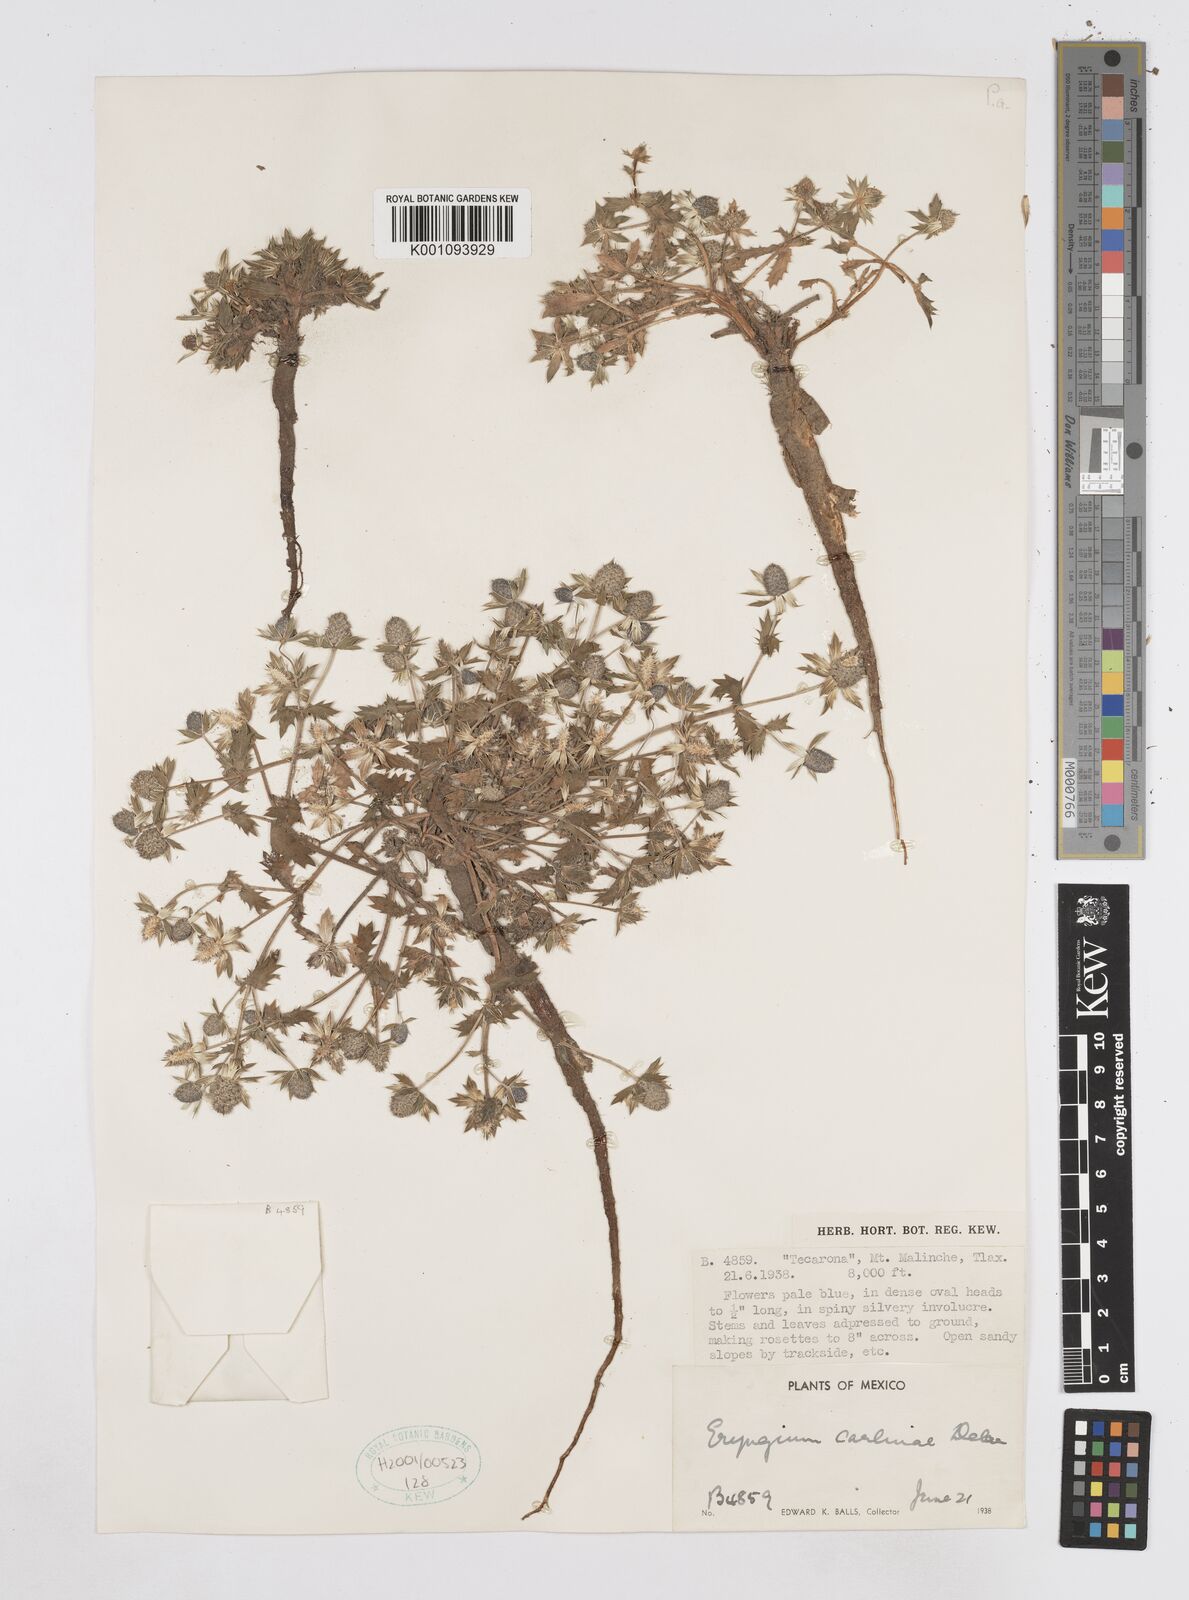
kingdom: Plantae
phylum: Tracheophyta
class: Magnoliopsida
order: Apiales
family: Apiaceae
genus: Eryngium
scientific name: Eryngium carlinae
